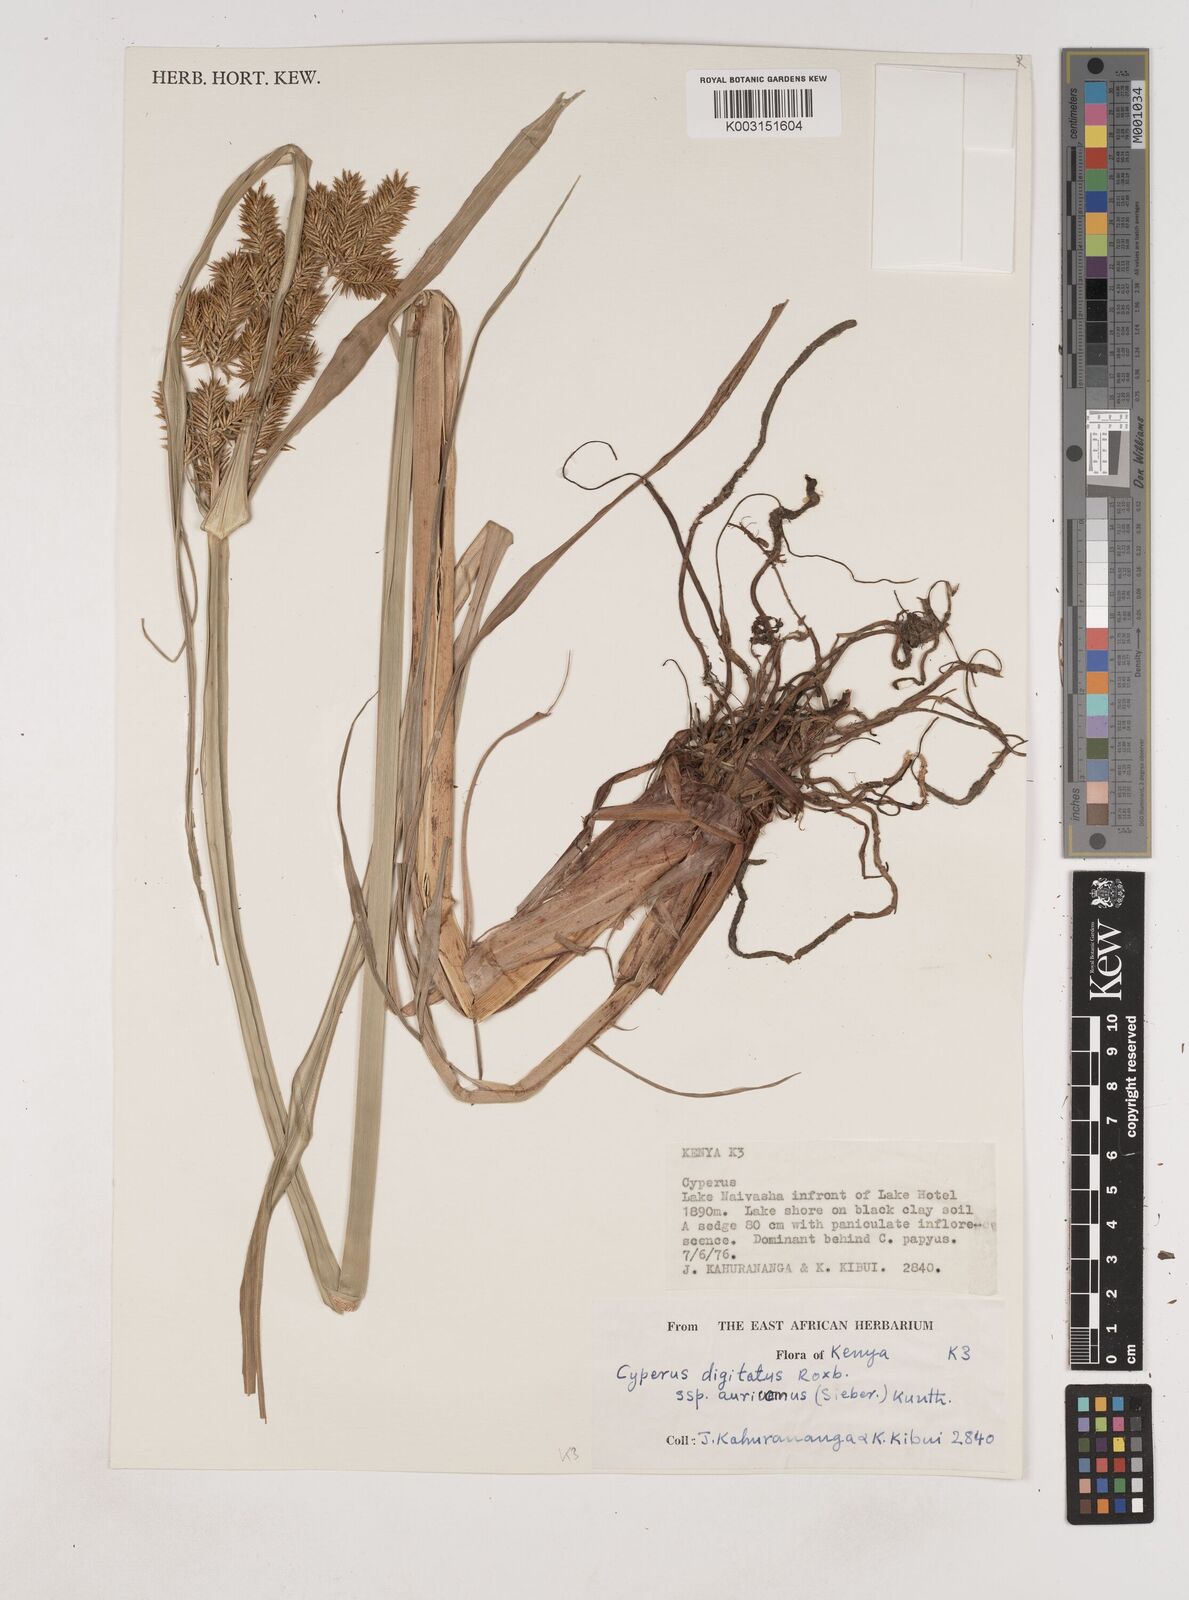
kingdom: Plantae
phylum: Tracheophyta
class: Liliopsida
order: Poales
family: Cyperaceae
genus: Cyperus
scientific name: Cyperus digitatus
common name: Finger flatsedge
